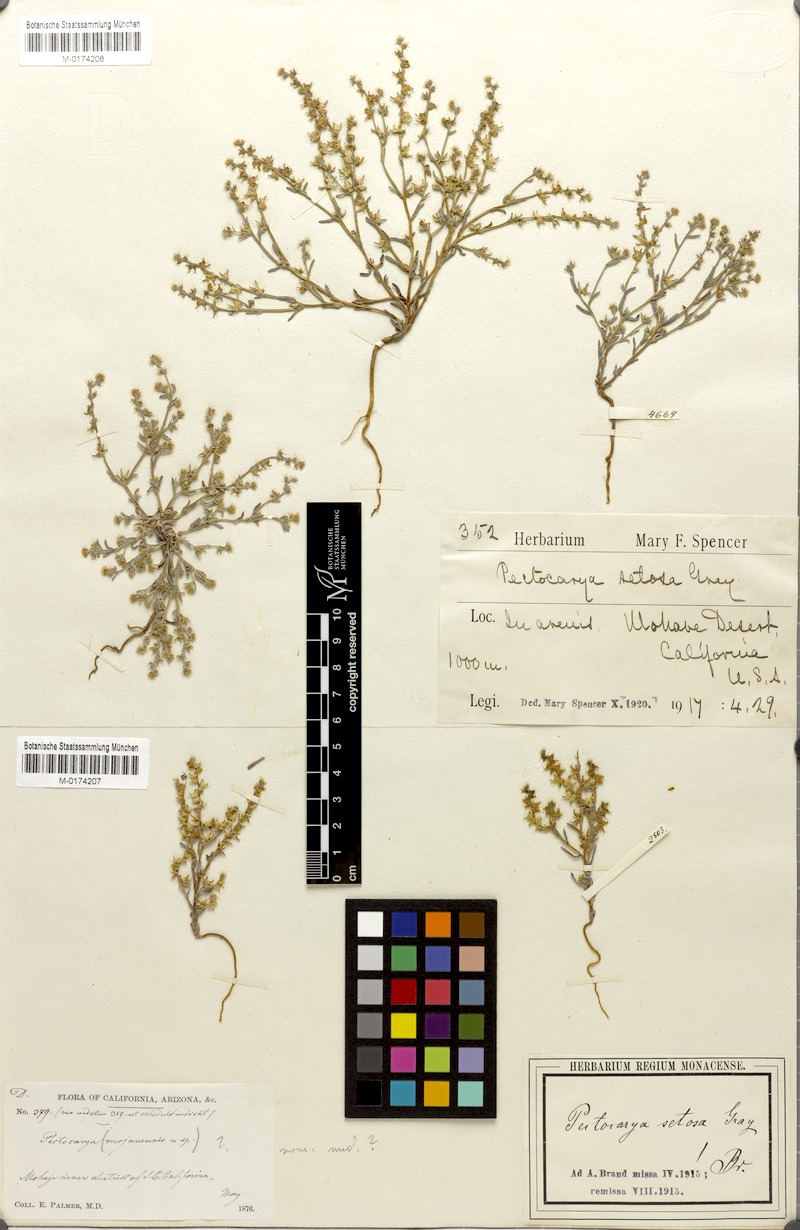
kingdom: Plantae
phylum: Tracheophyta
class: Magnoliopsida
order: Boraginales
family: Boraginaceae
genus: Pectocarya
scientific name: Pectocarya setosa
